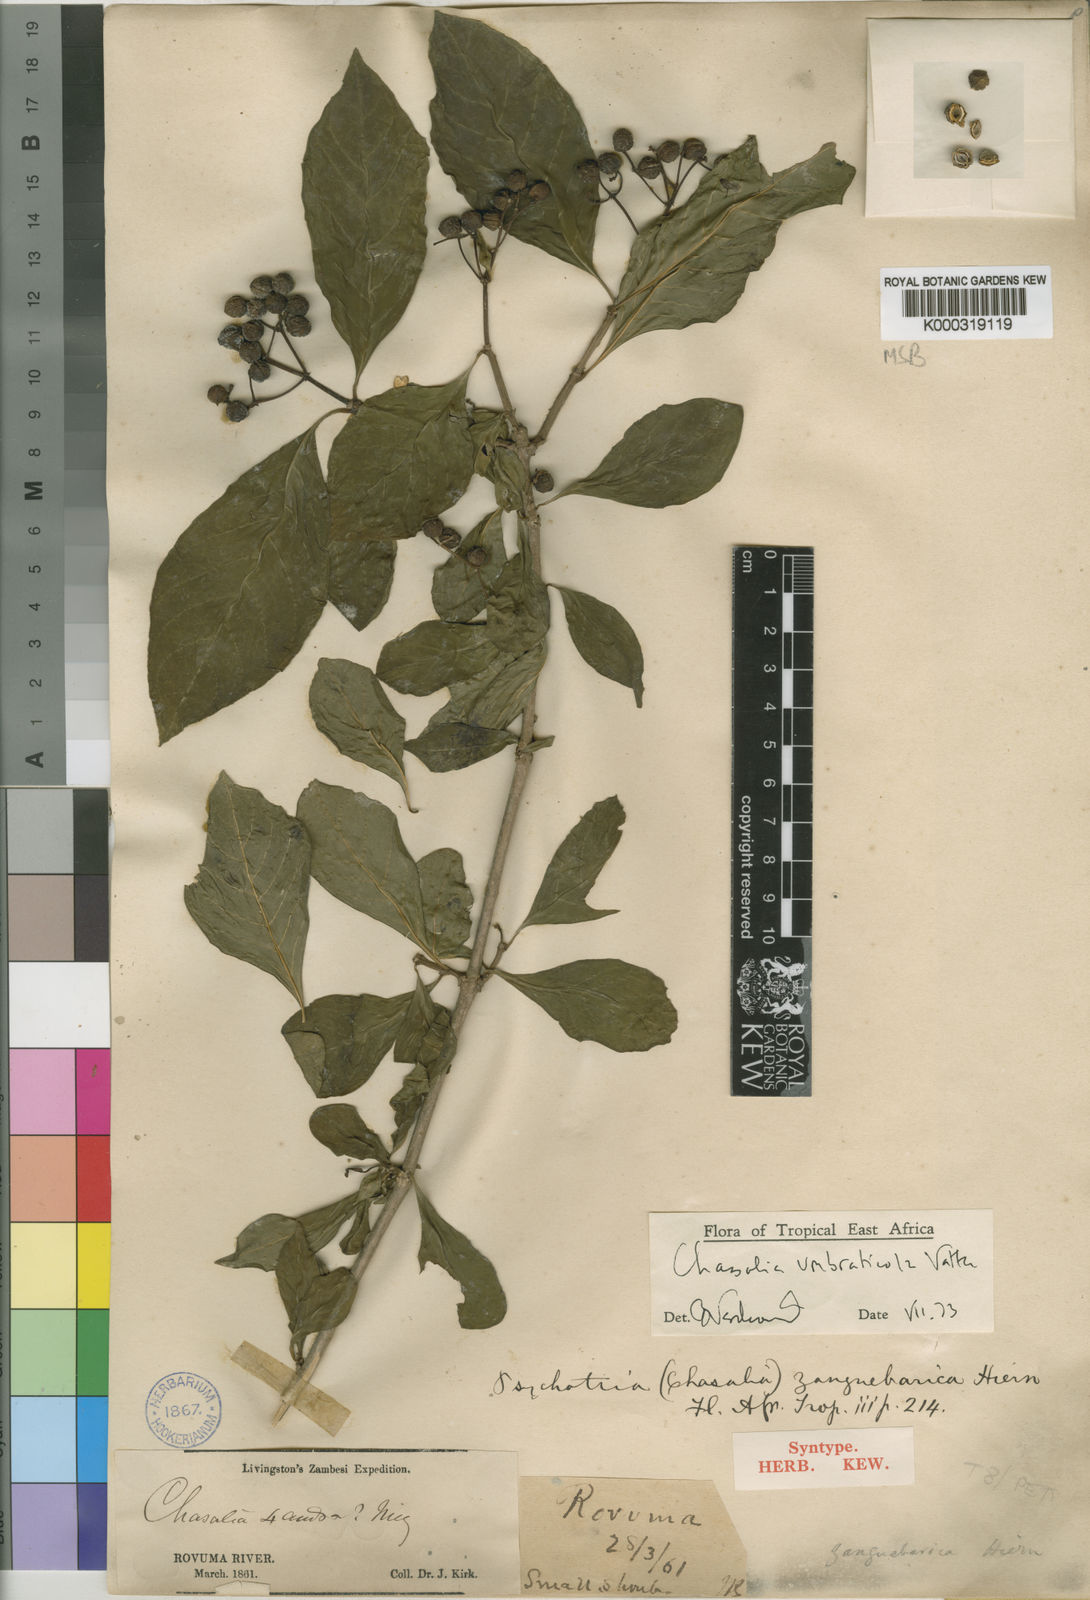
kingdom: Plantae
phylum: Tracheophyta
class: Magnoliopsida
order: Gentianales
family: Rubiaceae
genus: Chassalia
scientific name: Chassalia umbraticola
